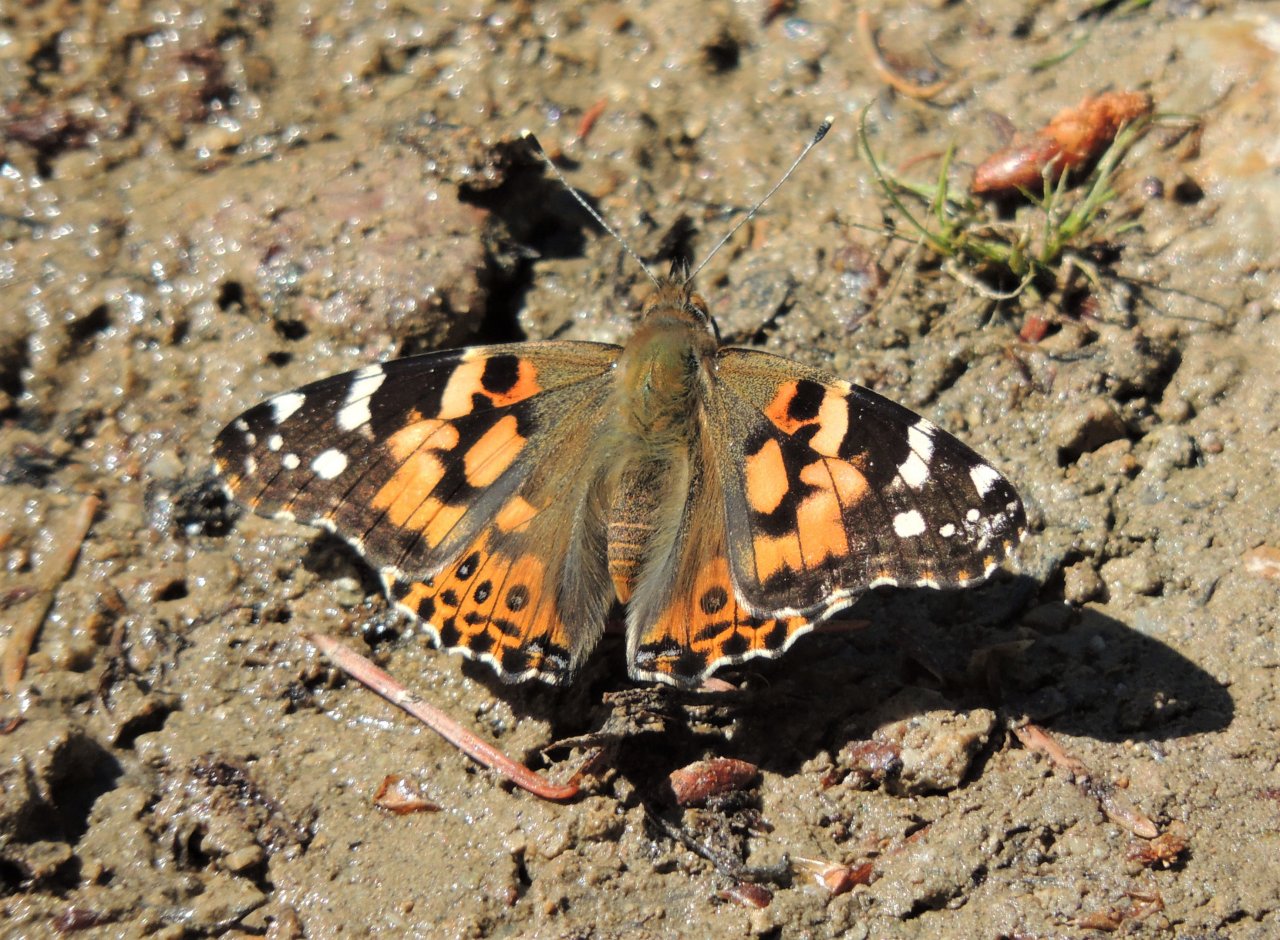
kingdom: Animalia
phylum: Arthropoda
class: Insecta
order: Lepidoptera
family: Nymphalidae
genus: Vanessa
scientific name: Vanessa cardui
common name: Painted Lady
